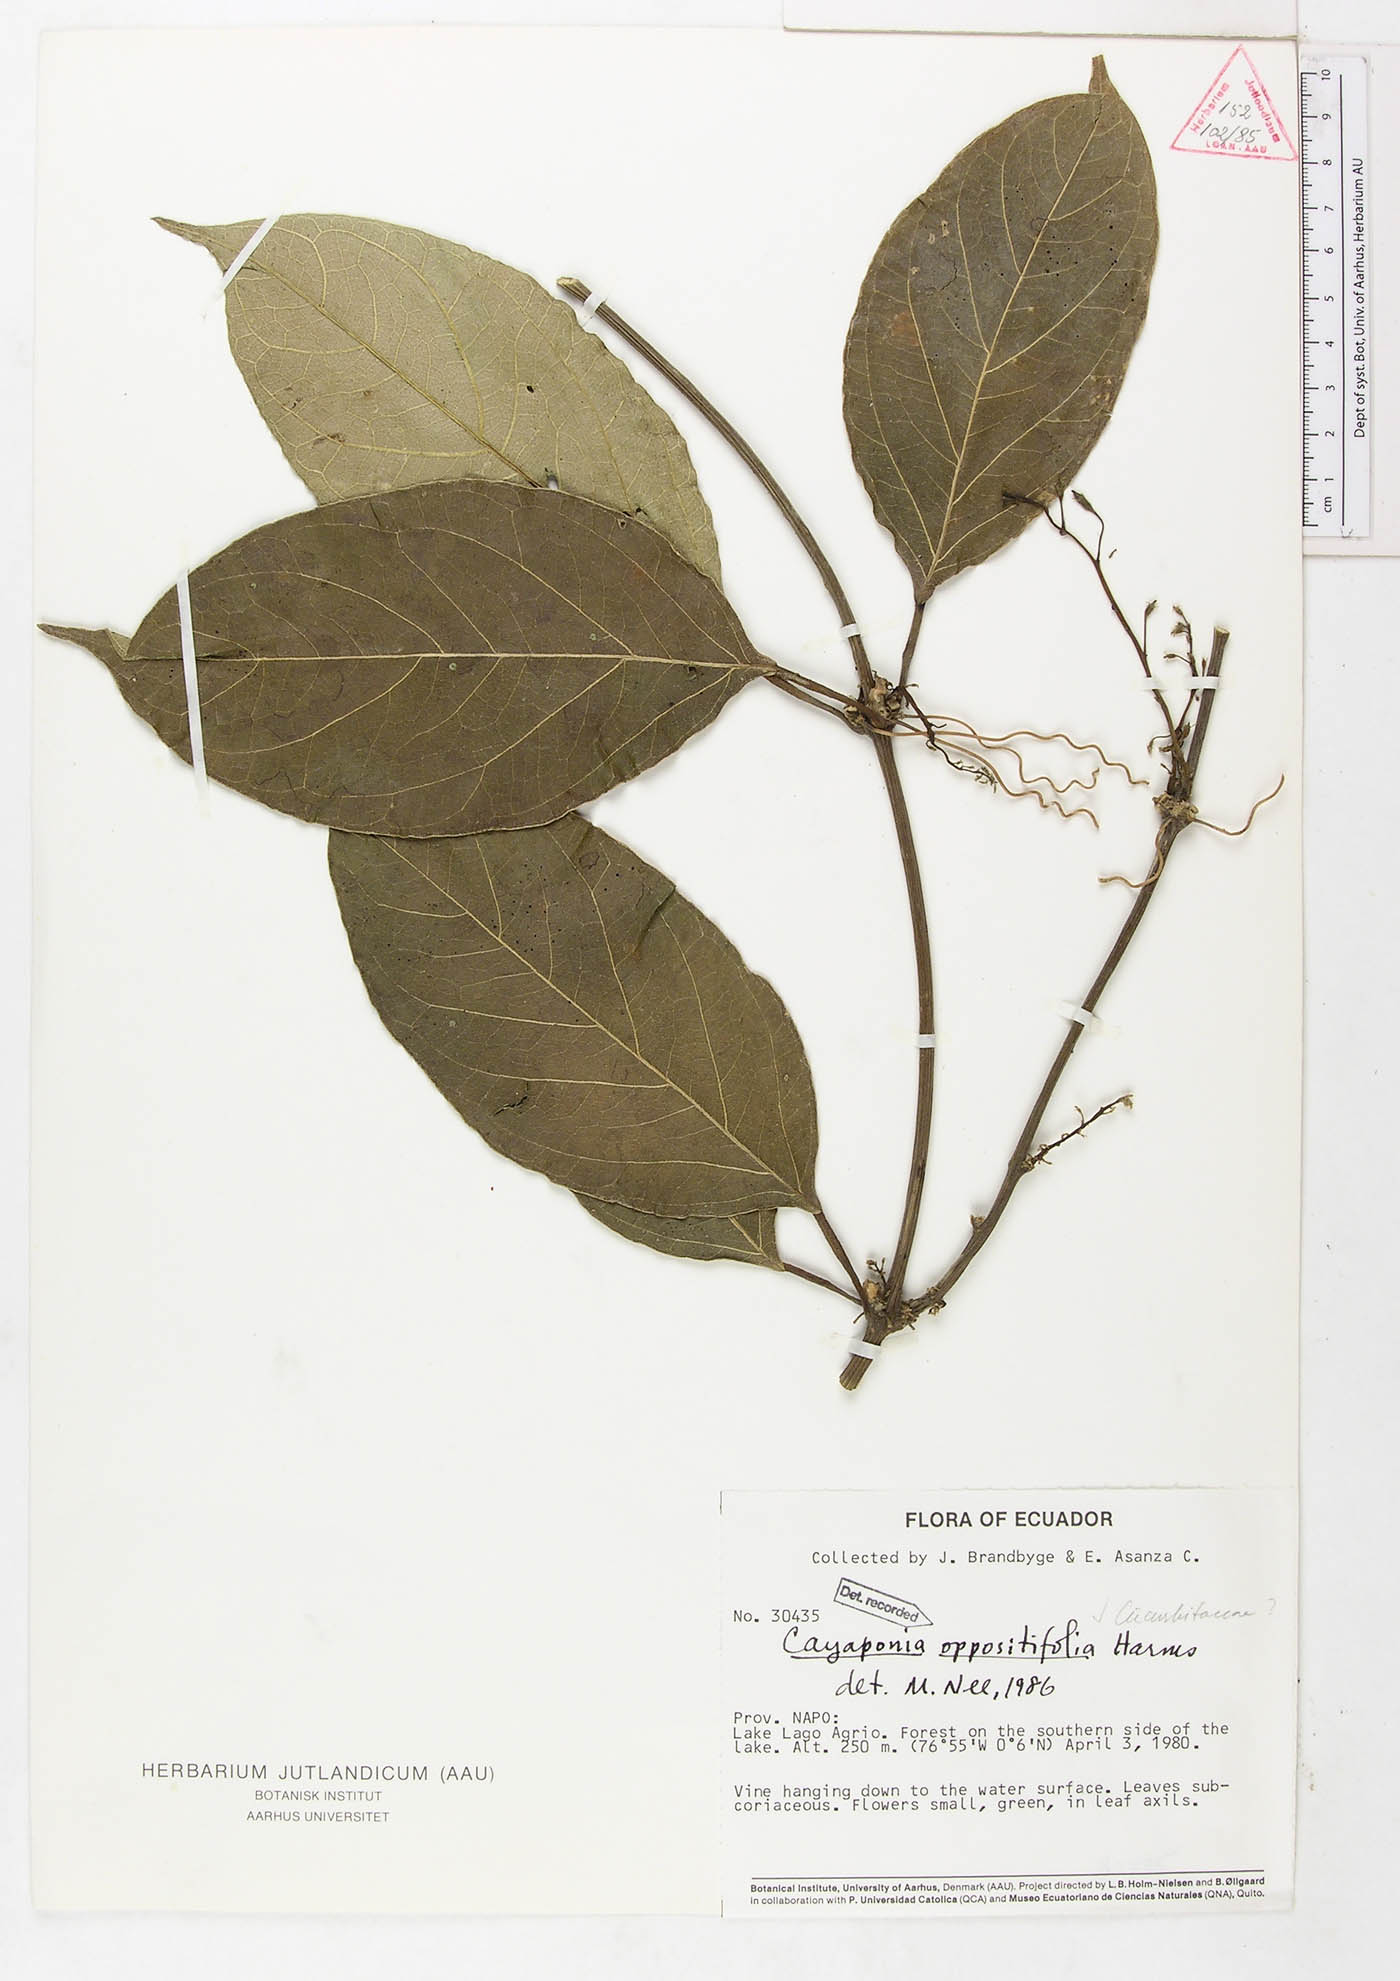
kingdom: Plantae
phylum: Tracheophyta
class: Magnoliopsida
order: Cucurbitales
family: Cucurbitaceae
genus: Cayaponia
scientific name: Cayaponia oppositifolia
